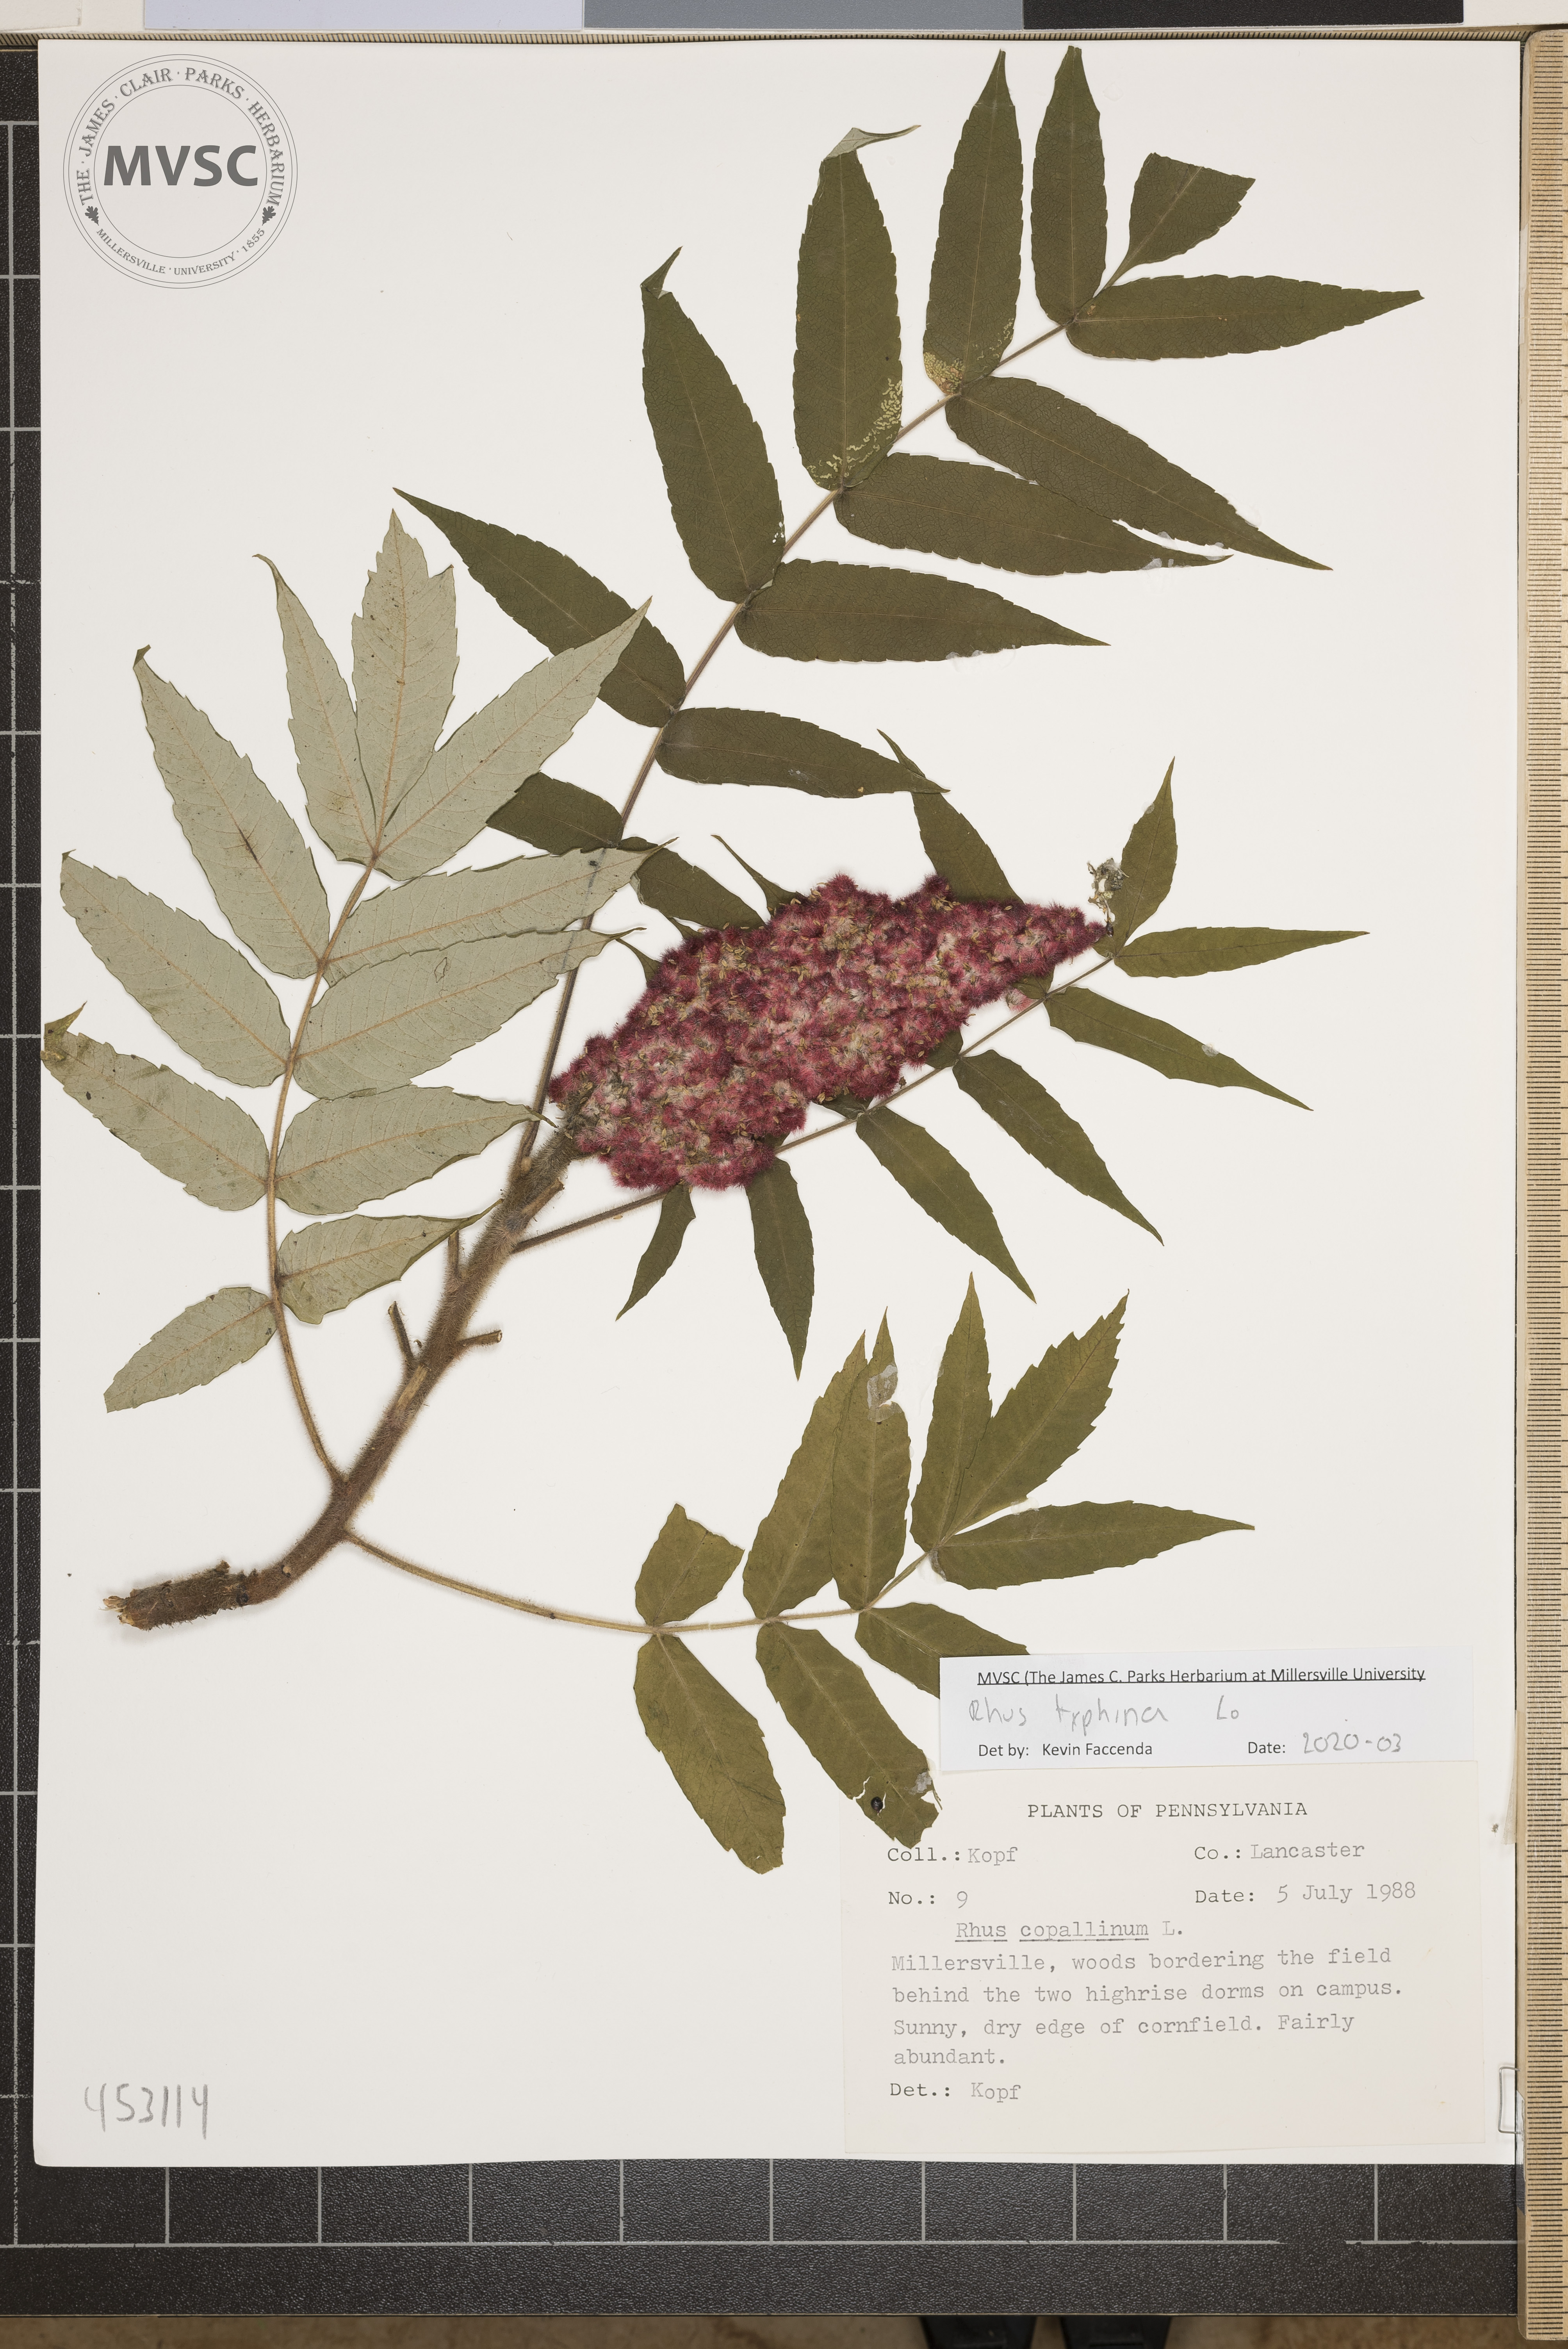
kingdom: Plantae
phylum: Tracheophyta
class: Magnoliopsida
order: Sapindales
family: Anacardiaceae
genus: Rhus
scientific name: Rhus typhina
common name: Staghorn sumac
